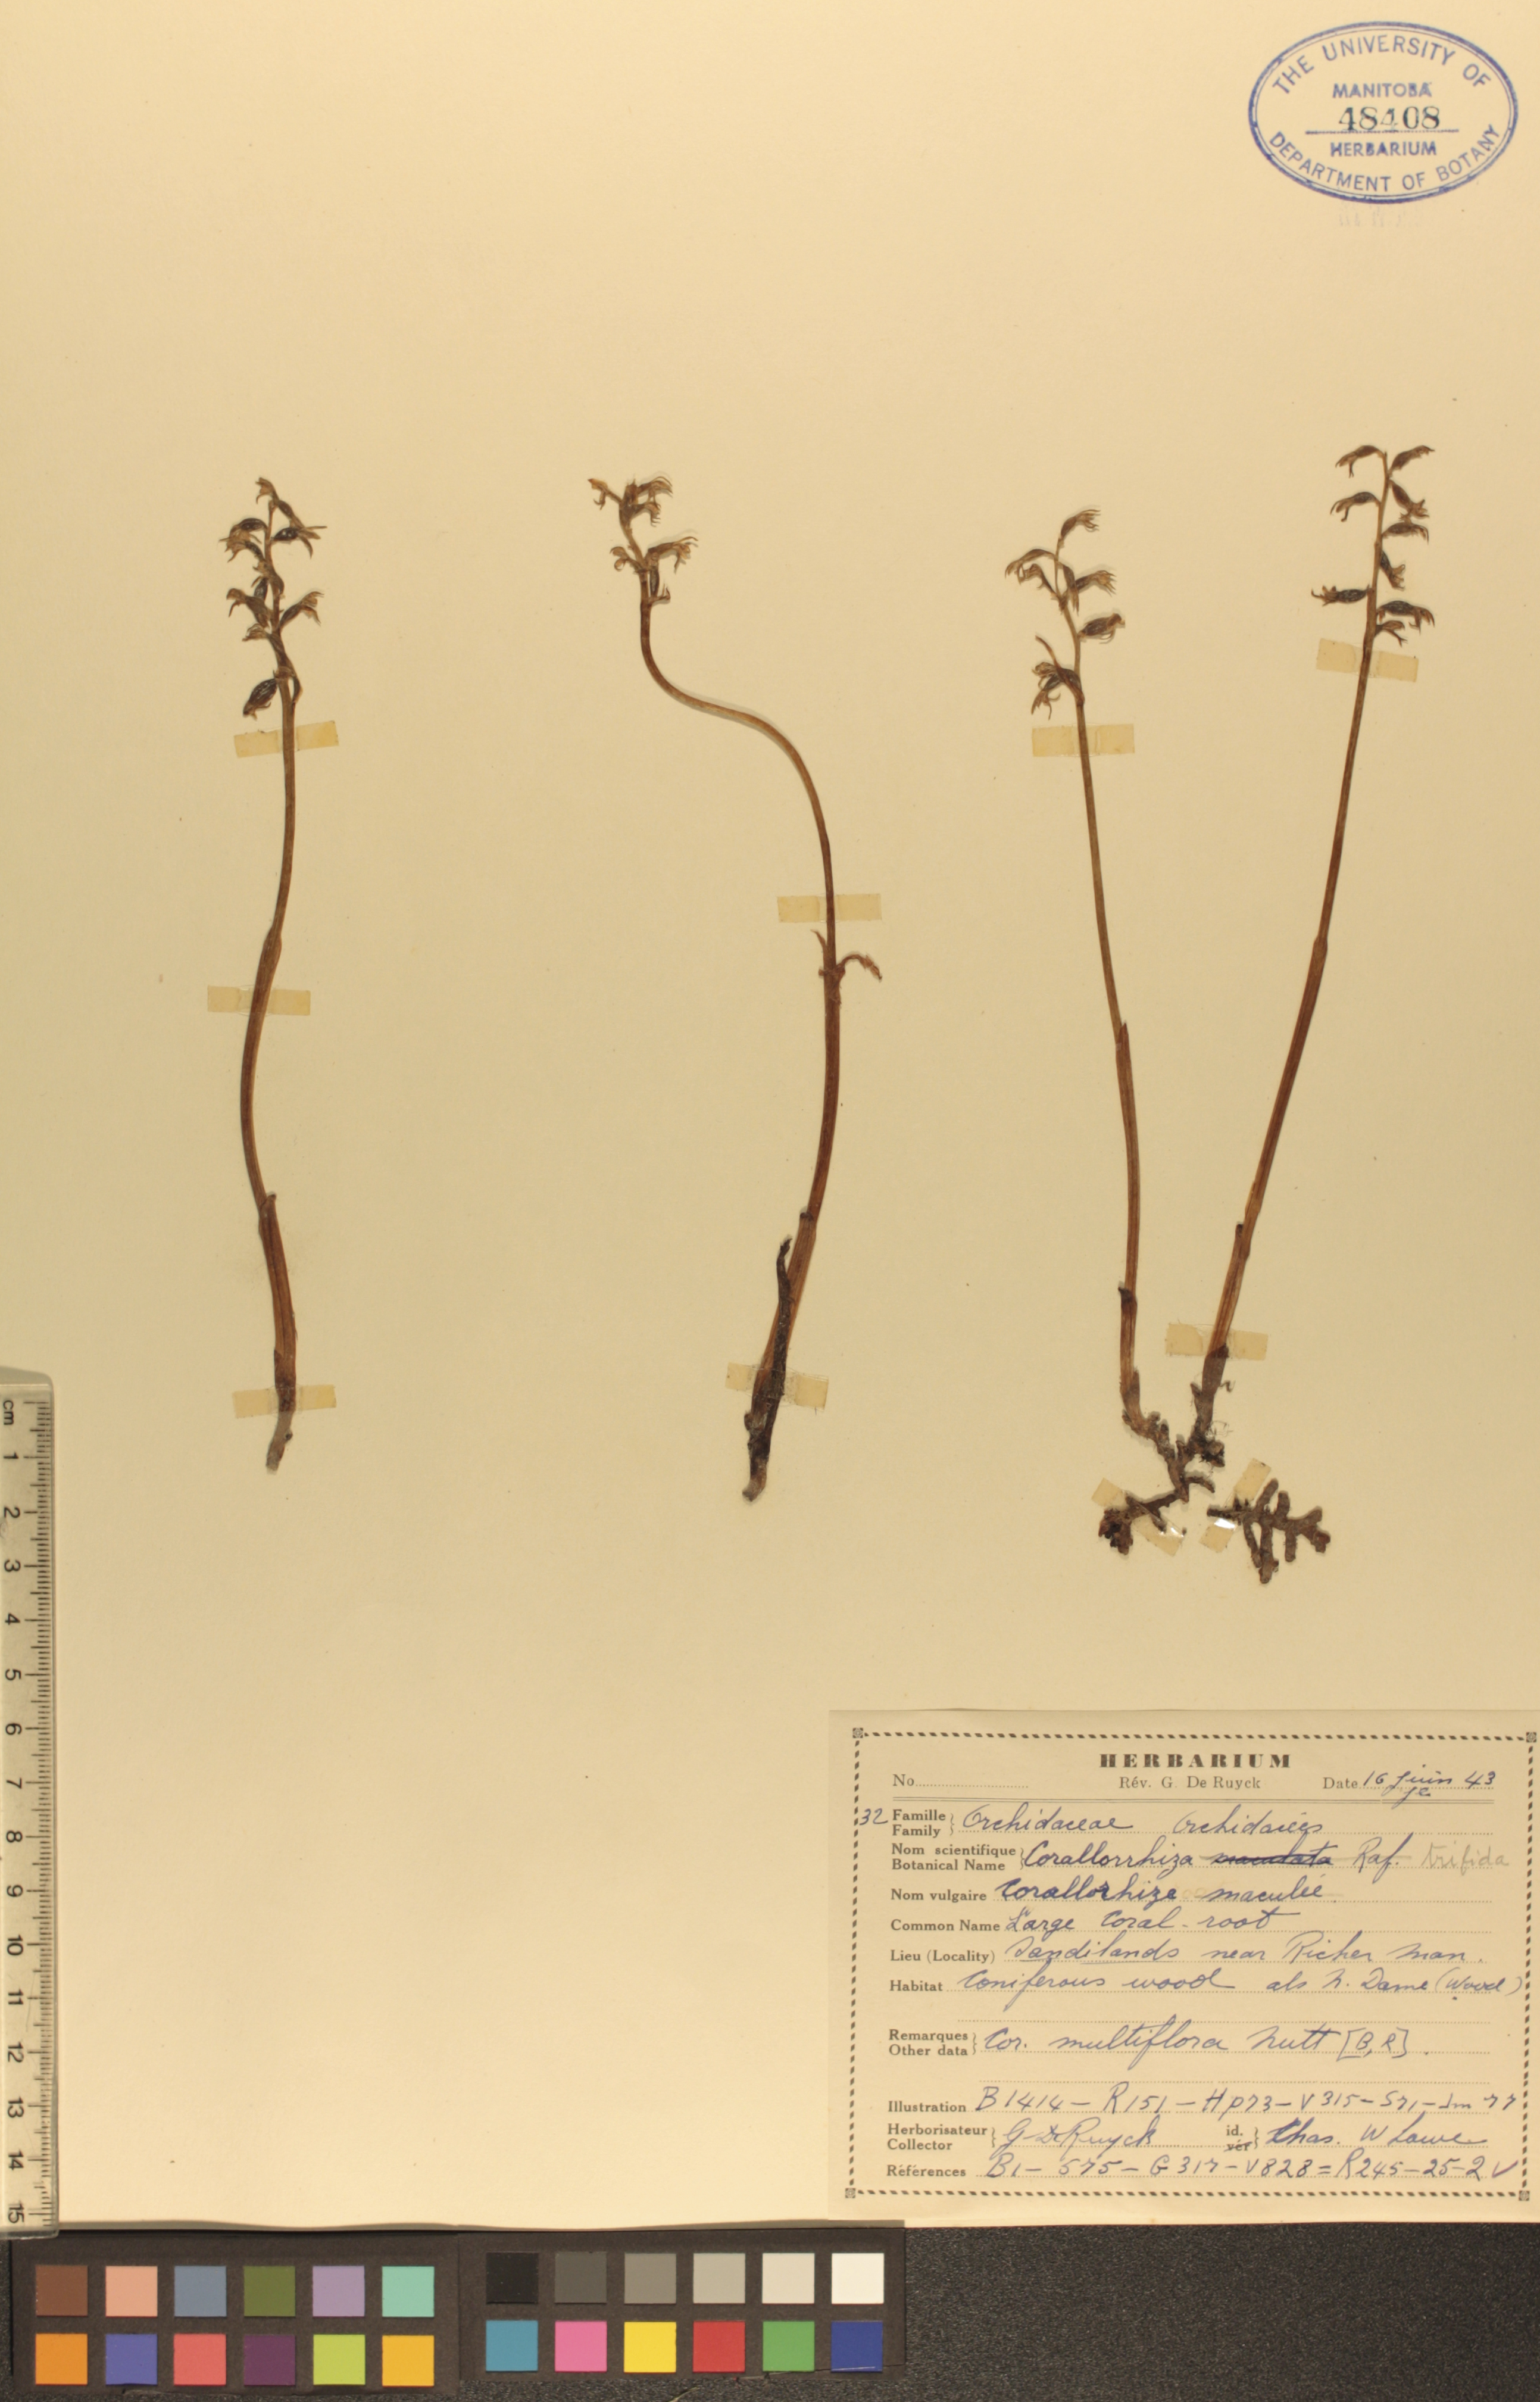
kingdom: Plantae
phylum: Tracheophyta
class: Liliopsida
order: Asparagales
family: Orchidaceae
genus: Corallorhiza
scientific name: Corallorhiza trifida
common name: Yellow coralroot
